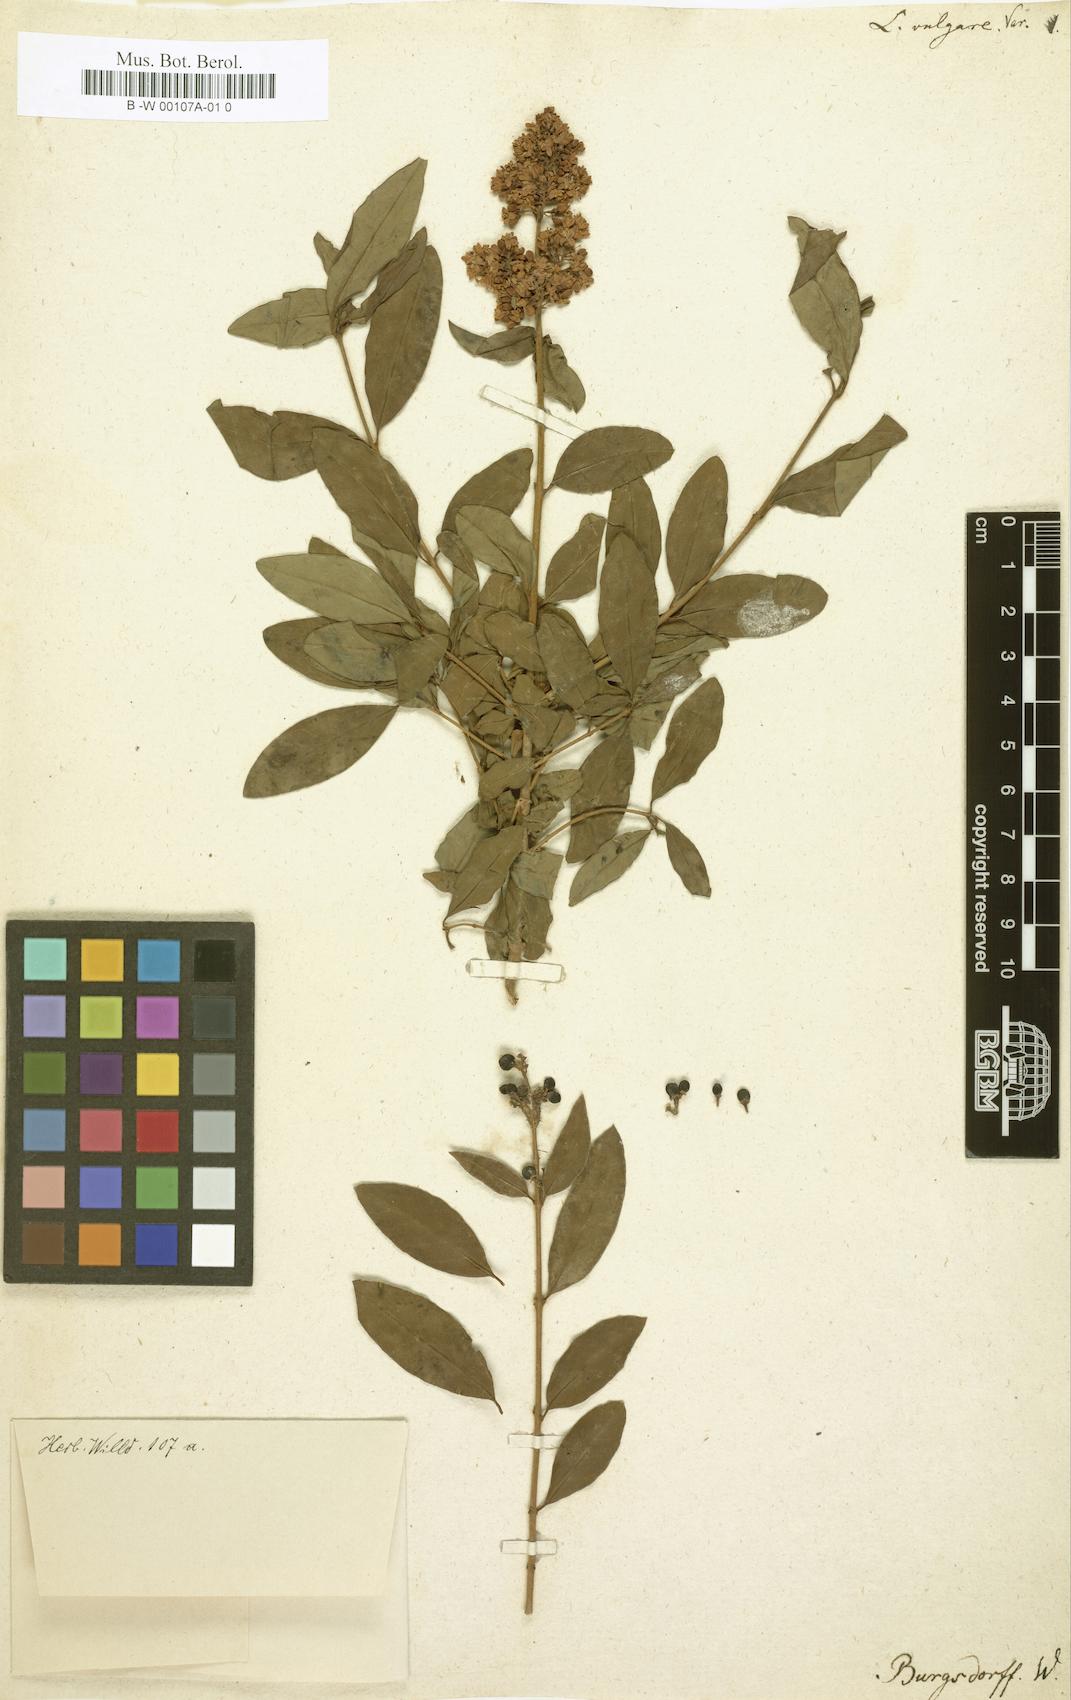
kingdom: Plantae
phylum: Tracheophyta
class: Magnoliopsida
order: Lamiales
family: Oleaceae
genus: Ligustrum
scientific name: Ligustrum vulgare
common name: Wild privet
